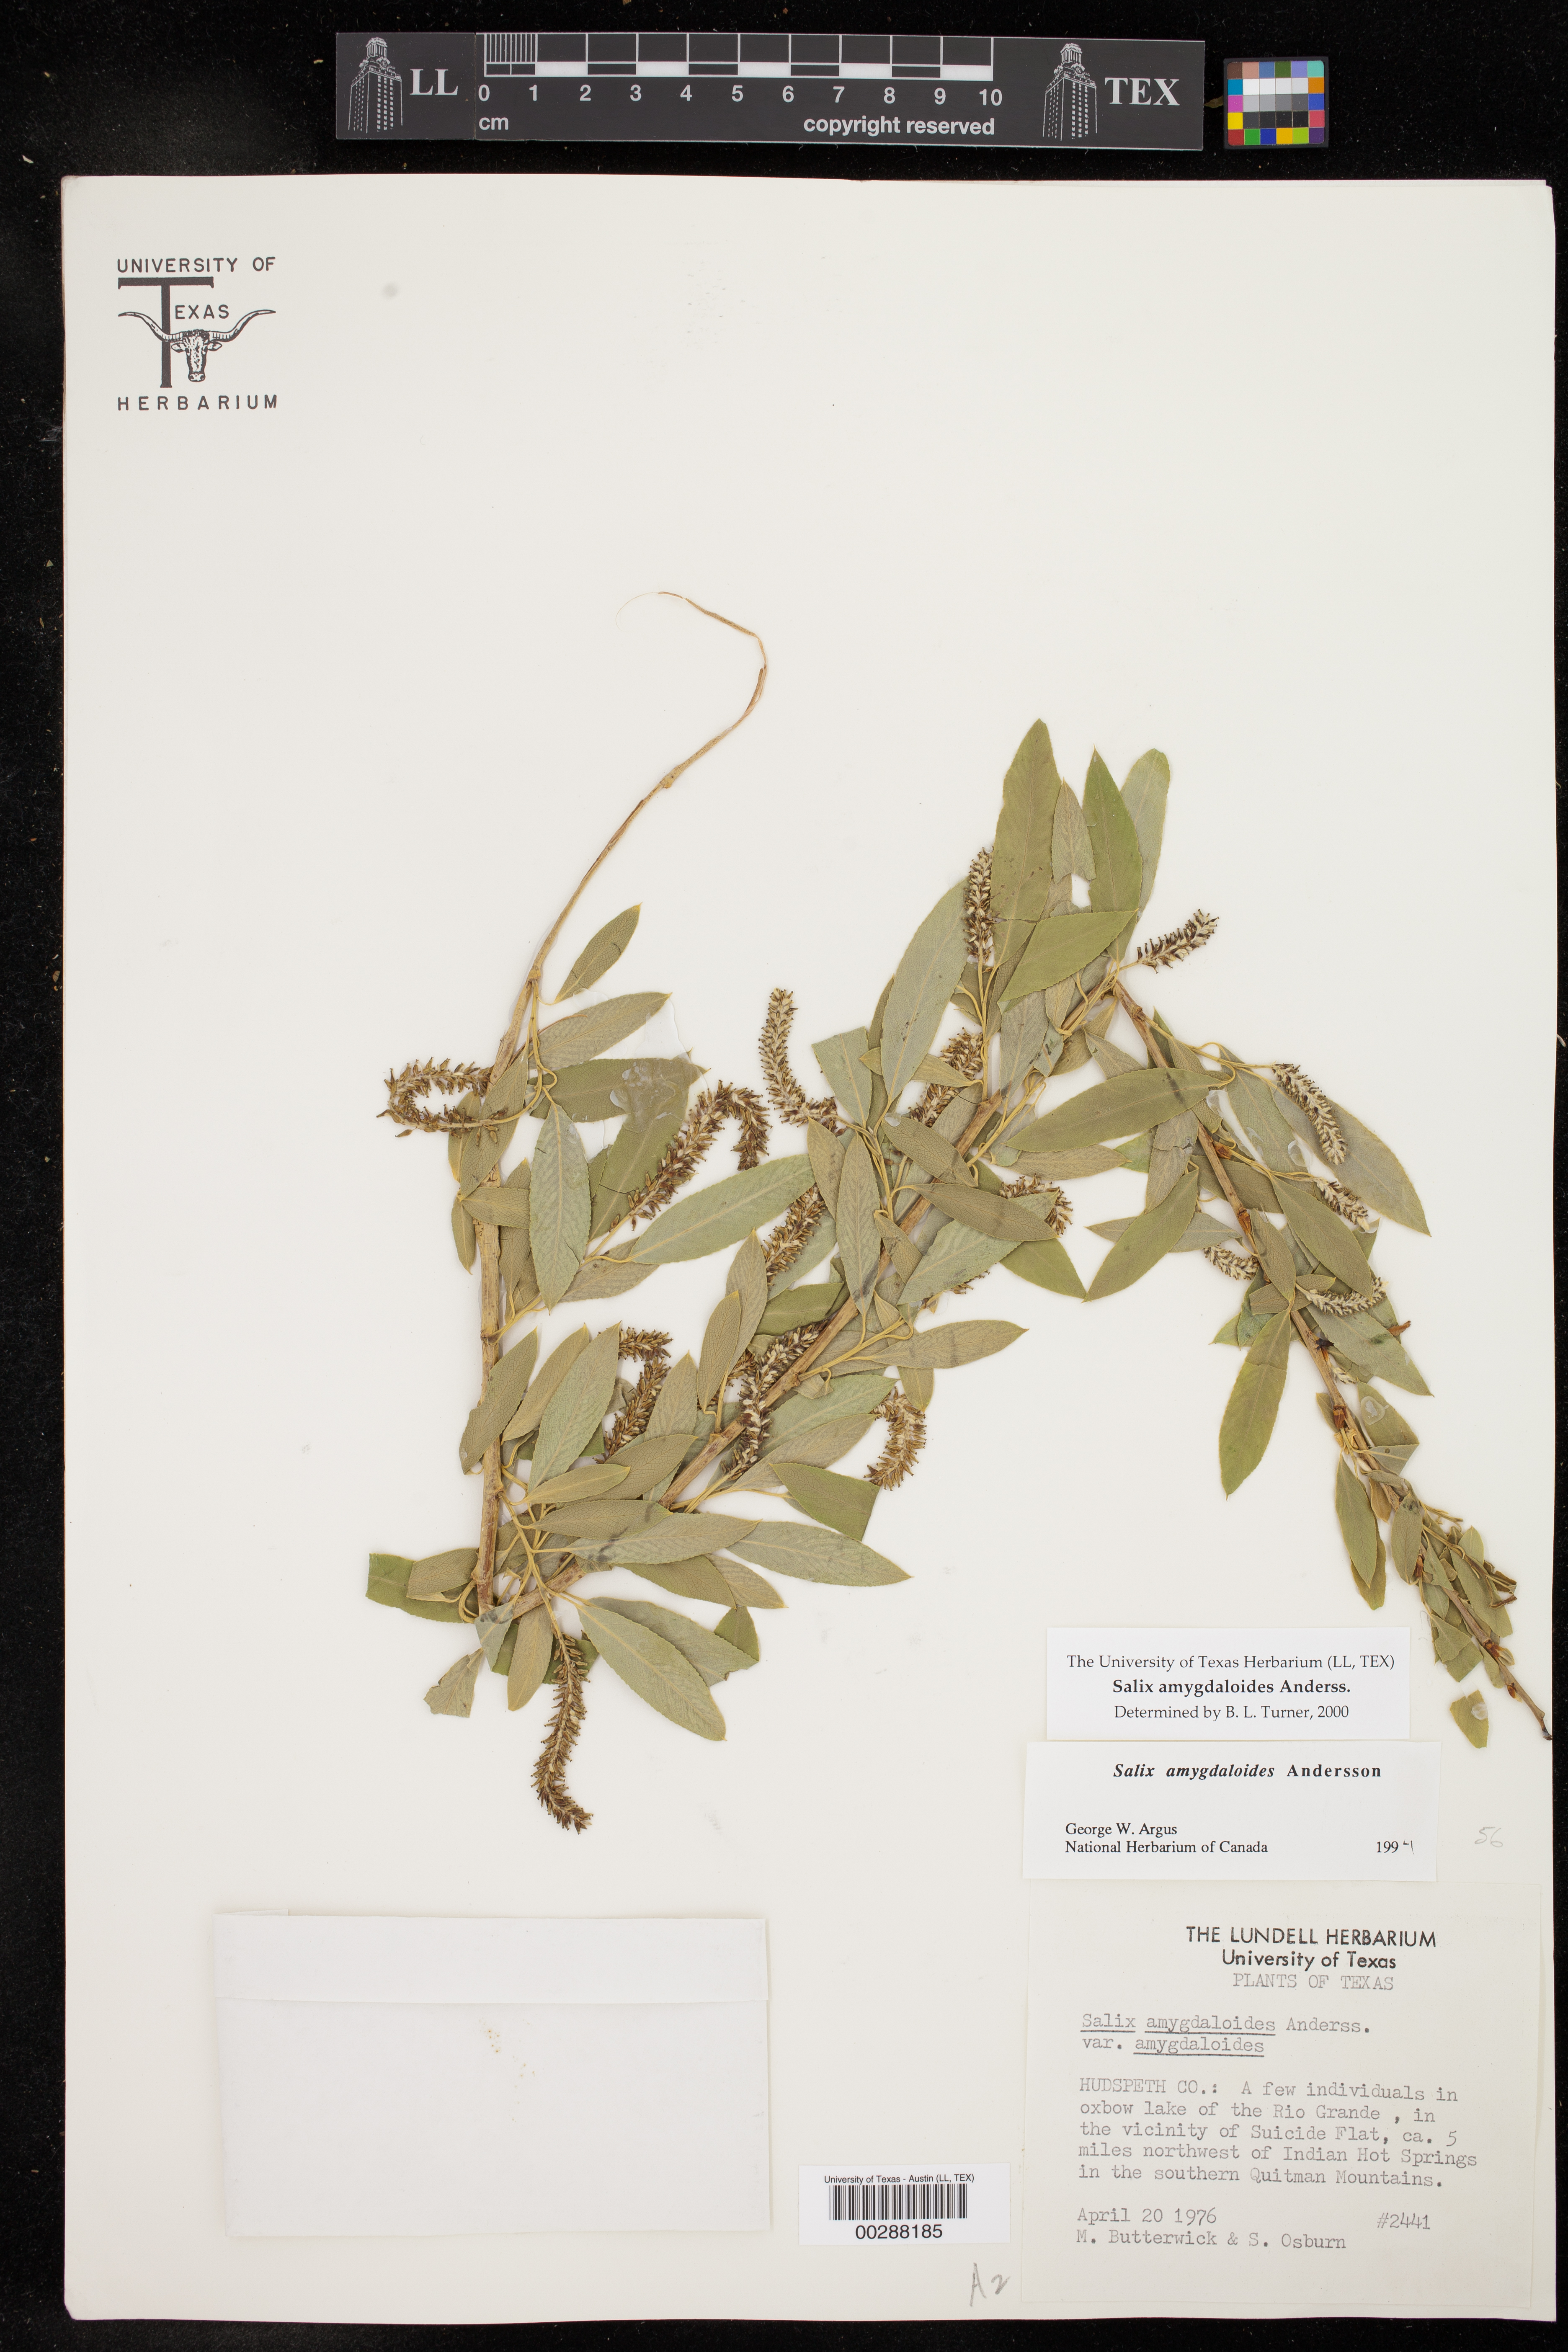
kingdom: Plantae
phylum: Tracheophyta
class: Magnoliopsida
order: Malpighiales
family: Salicaceae
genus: Salix
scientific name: Salix amygdaloides
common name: Peach leaf willow
